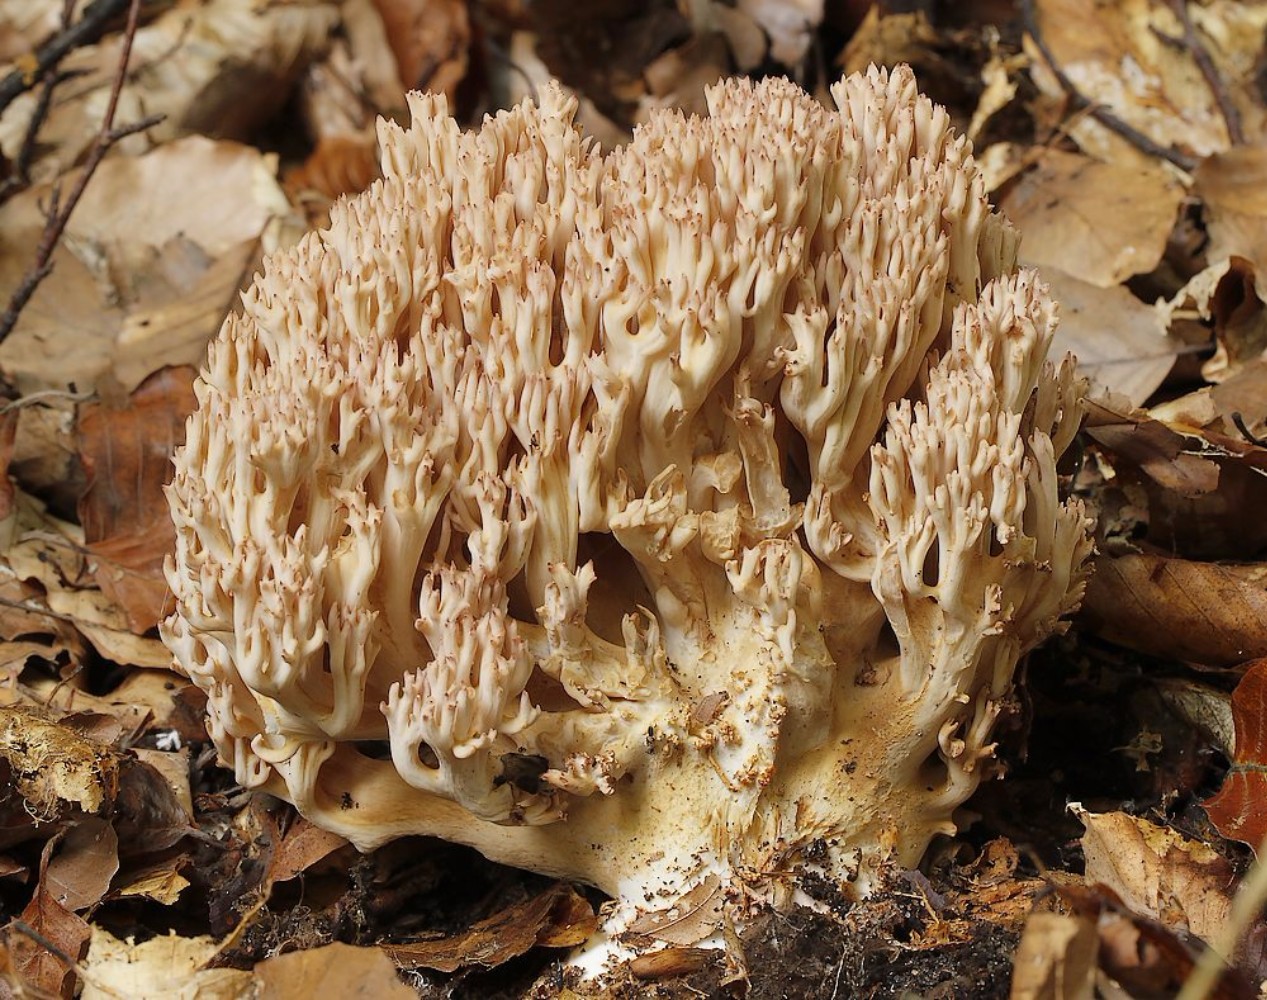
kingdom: Fungi
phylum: Basidiomycota
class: Agaricomycetes
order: Gomphales
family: Gomphaceae
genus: Ramaria
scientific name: Ramaria botrytis
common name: drue-koralsvamp
